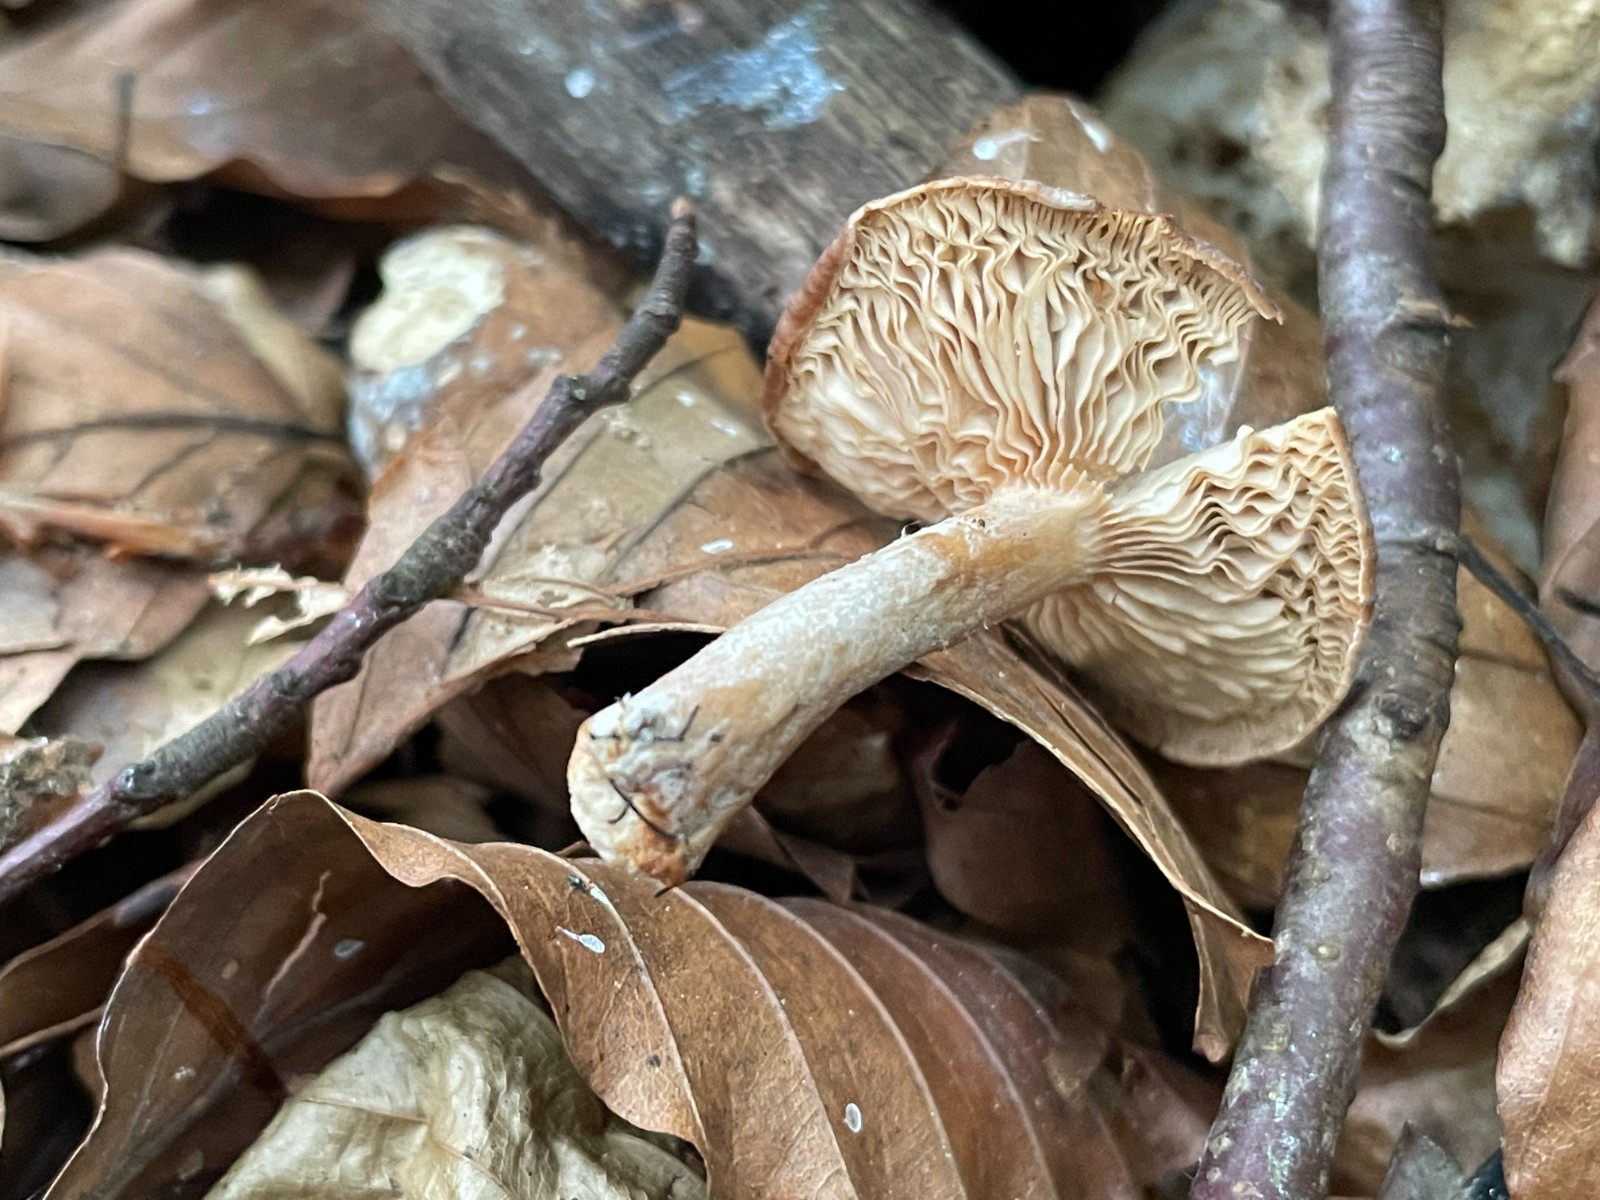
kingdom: Fungi
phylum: Basidiomycota
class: Agaricomycetes
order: Russulales
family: Russulaceae
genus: Lactarius
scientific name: Lactarius subdulcis
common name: sødlig mælkehat
